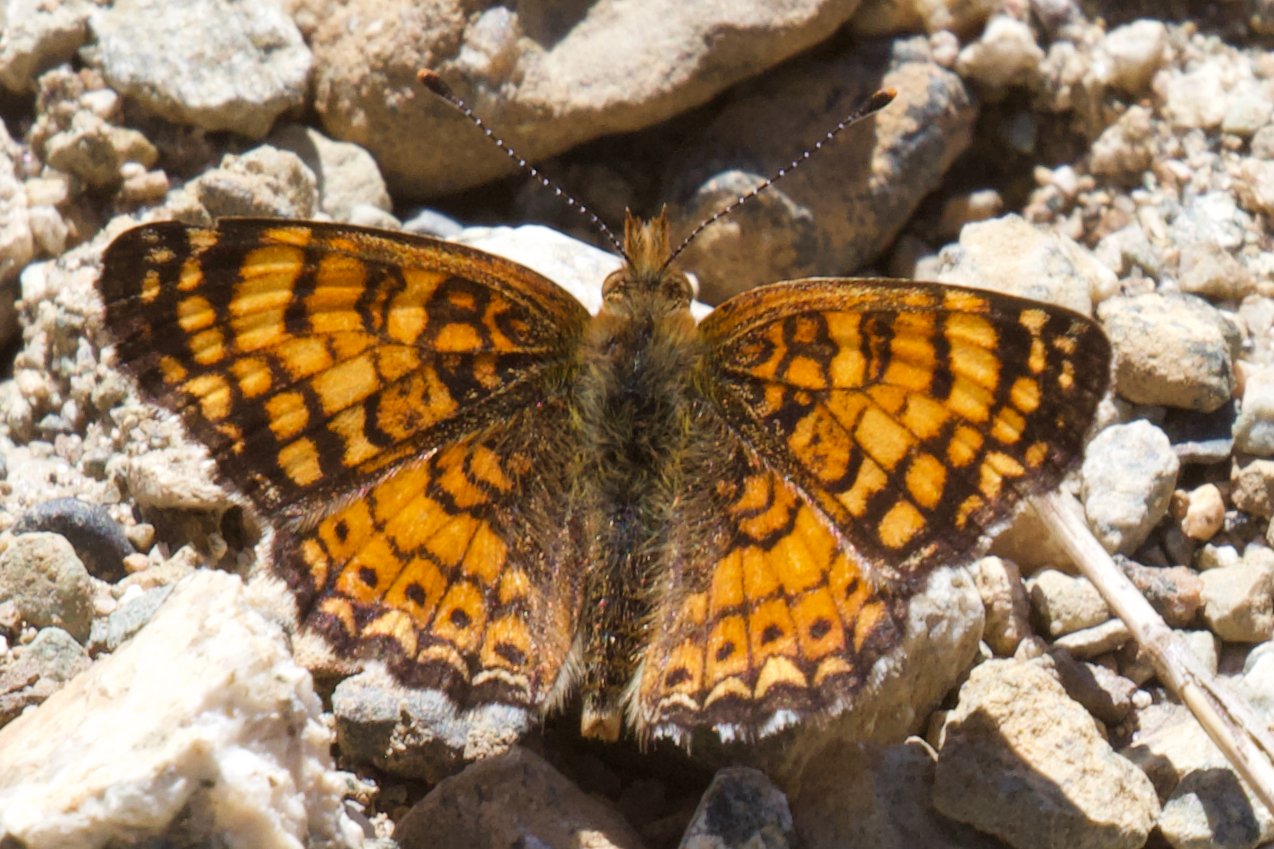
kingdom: Animalia
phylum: Arthropoda
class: Insecta
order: Lepidoptera
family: Nymphalidae
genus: Eresia
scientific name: Eresia aveyrona
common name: Mylitta Crescent
